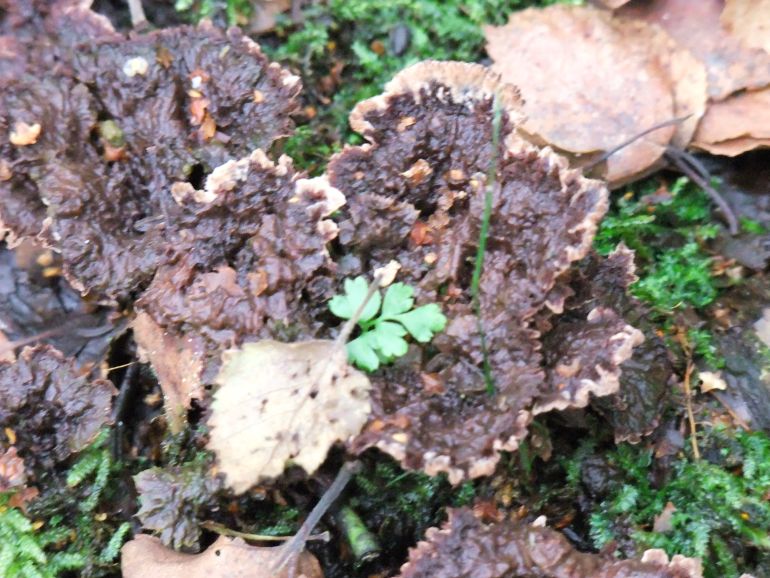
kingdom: Fungi
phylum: Basidiomycota
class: Agaricomycetes
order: Thelephorales
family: Thelephoraceae
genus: Thelephora
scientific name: Thelephora terrestris
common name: fliget frynsesvamp
